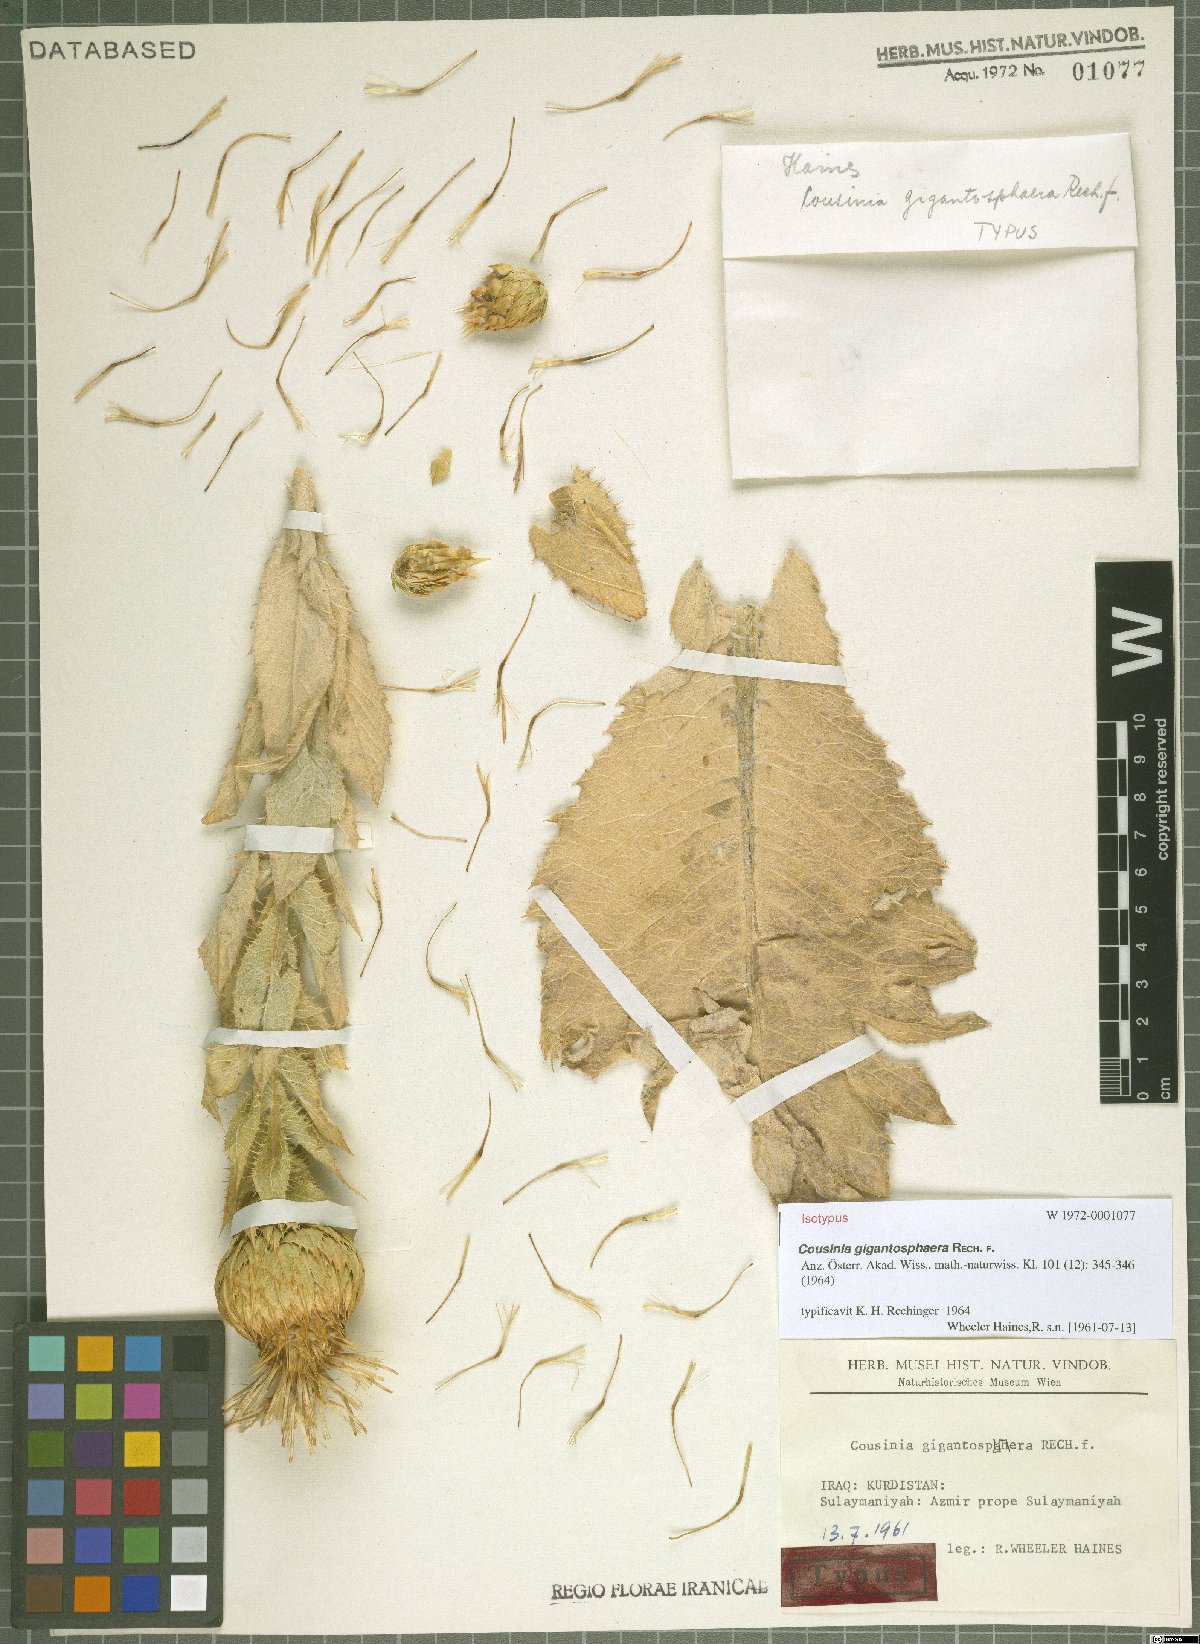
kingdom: Plantae
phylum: Tracheophyta
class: Magnoliopsida
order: Asterales
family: Asteraceae
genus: Cousinia
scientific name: Cousinia macrolepis
